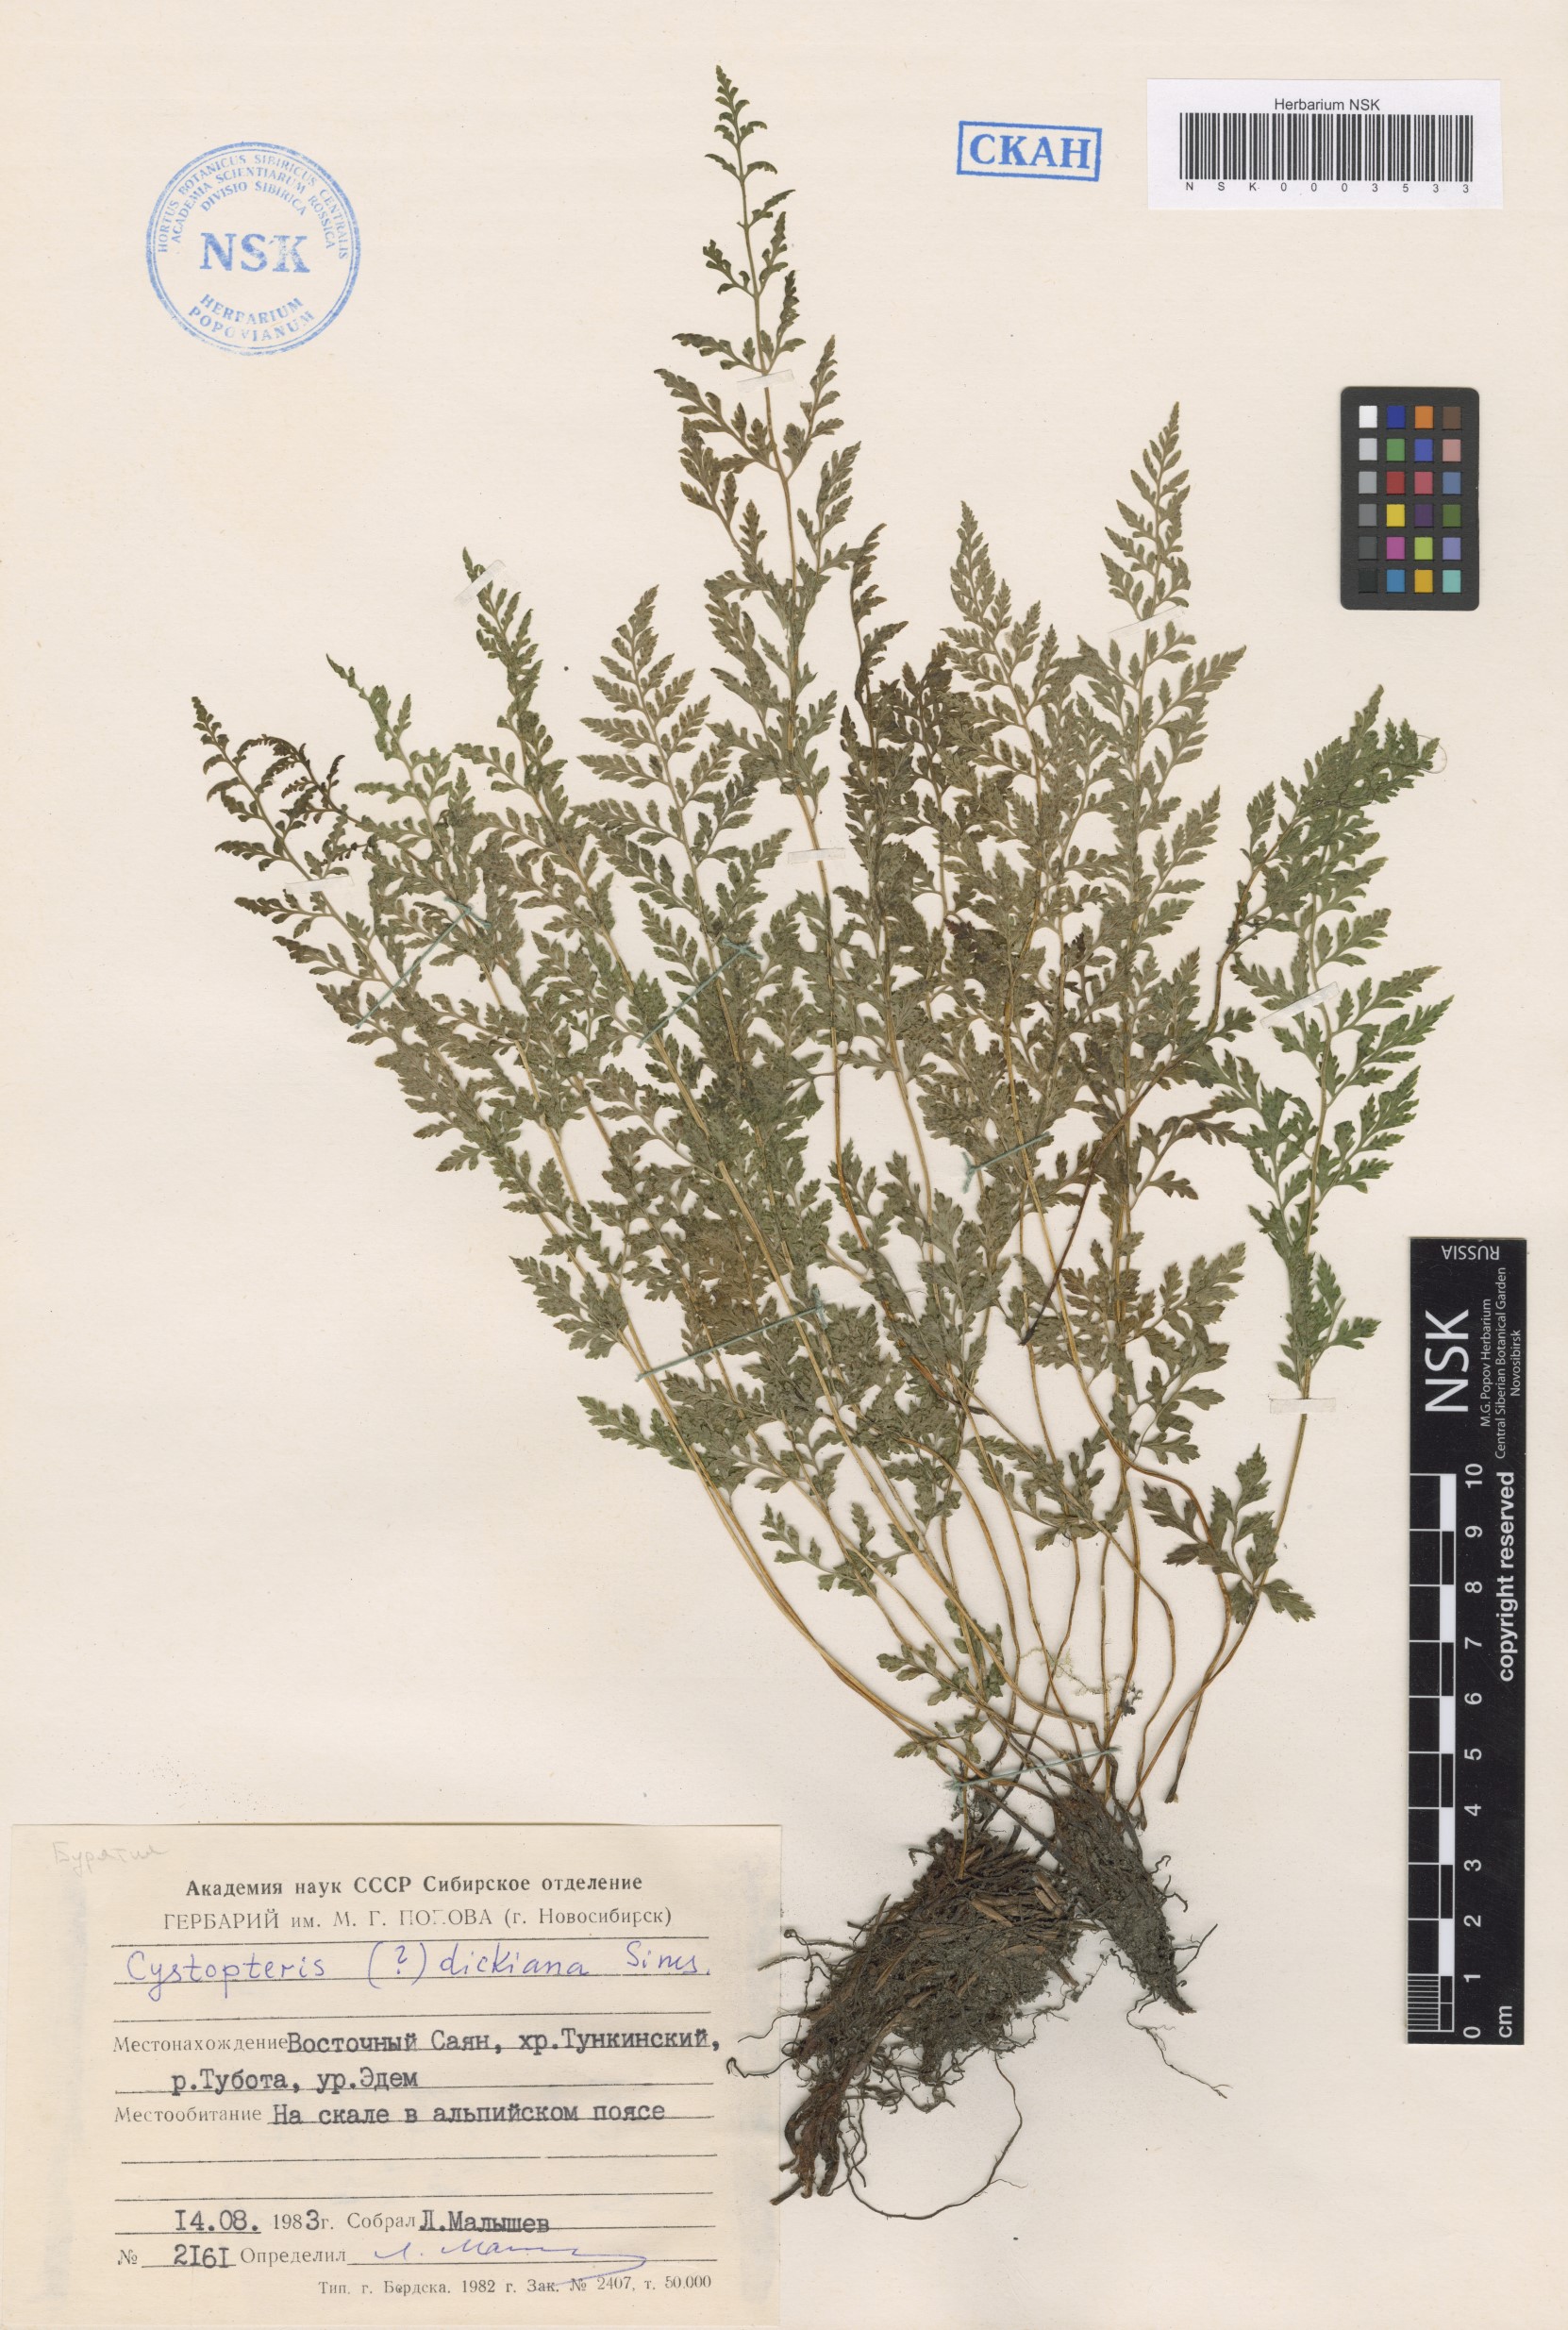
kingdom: Plantae
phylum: Tracheophyta
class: Polypodiopsida
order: Polypodiales
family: Cystopteridaceae
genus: Cystopteris
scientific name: Cystopteris dickieana
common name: Dickie's bladder-fern
